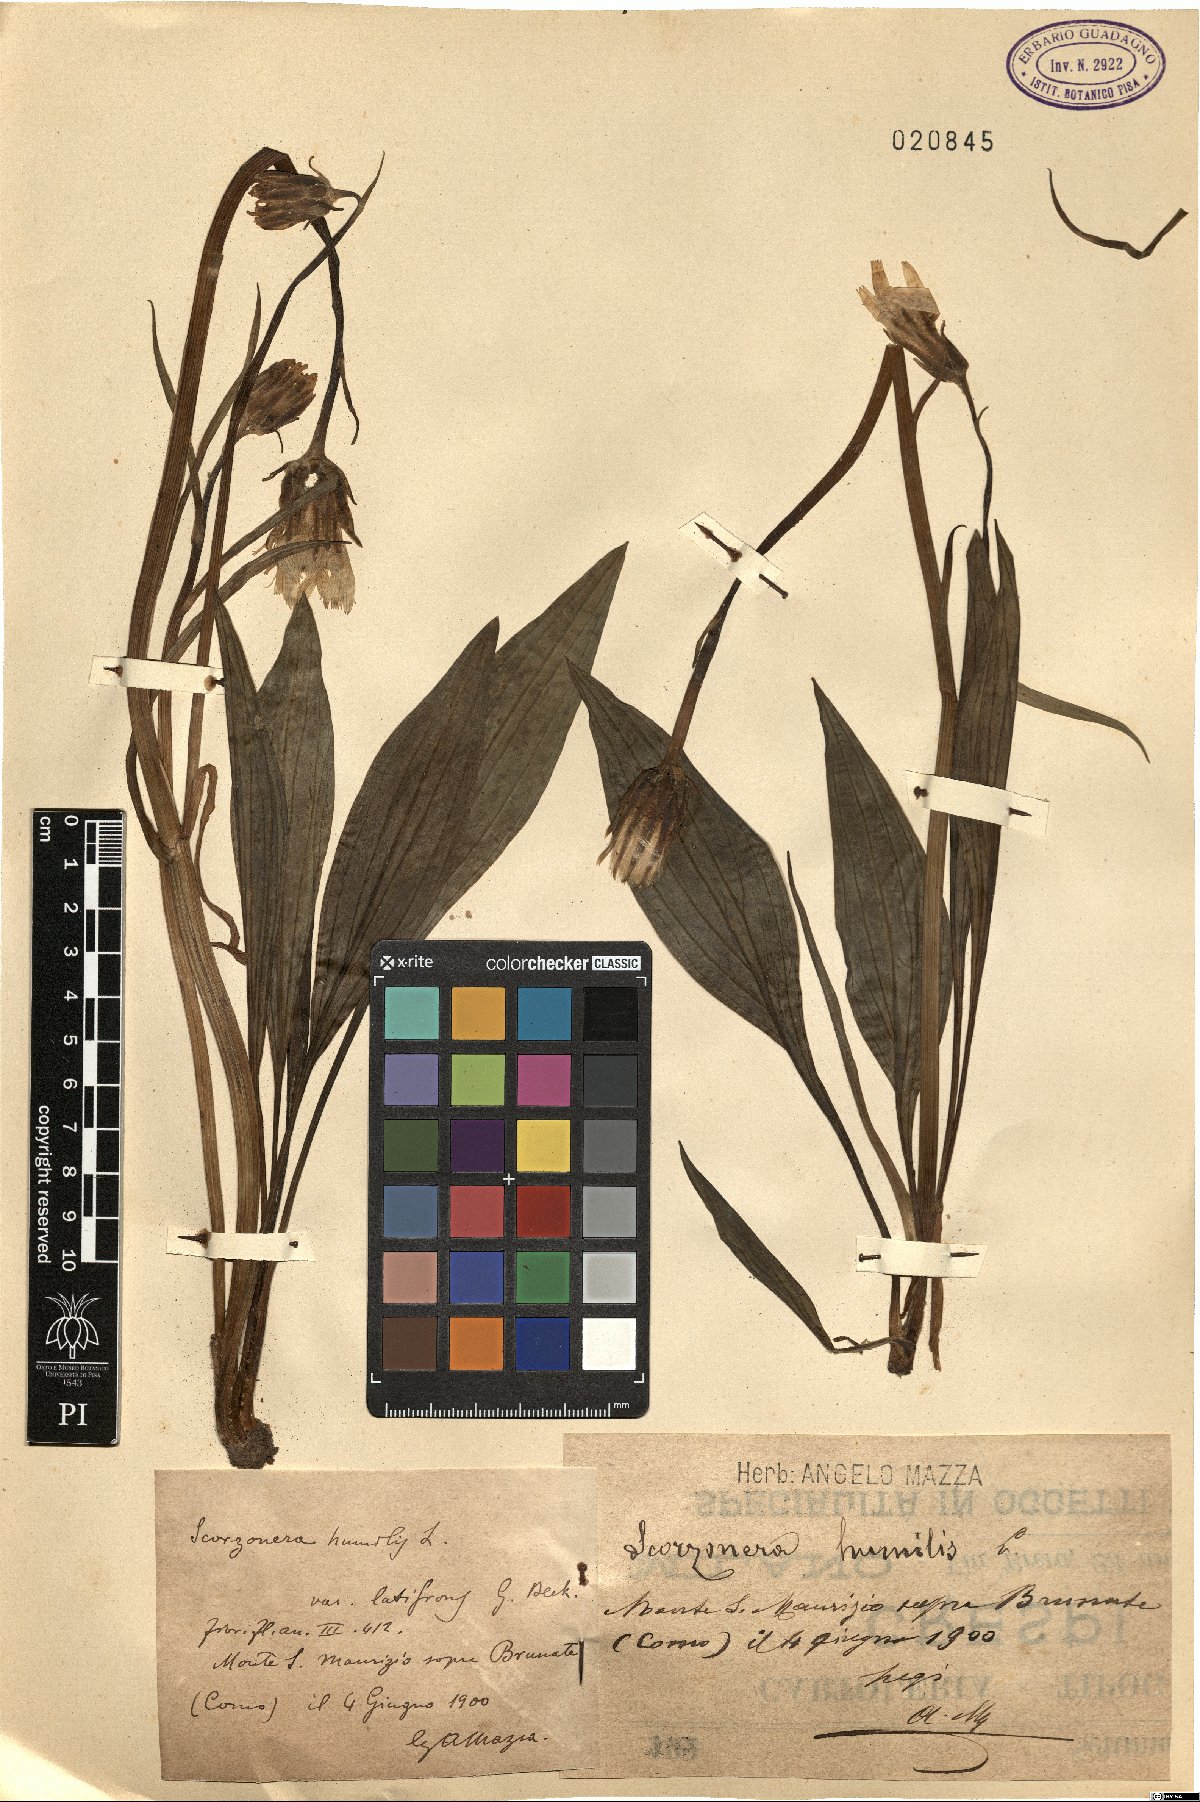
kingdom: Plantae
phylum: Tracheophyta
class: Magnoliopsida
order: Asterales
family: Asteraceae
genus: Scorzonera
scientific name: Scorzonera humilis
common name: Viper's-grass
